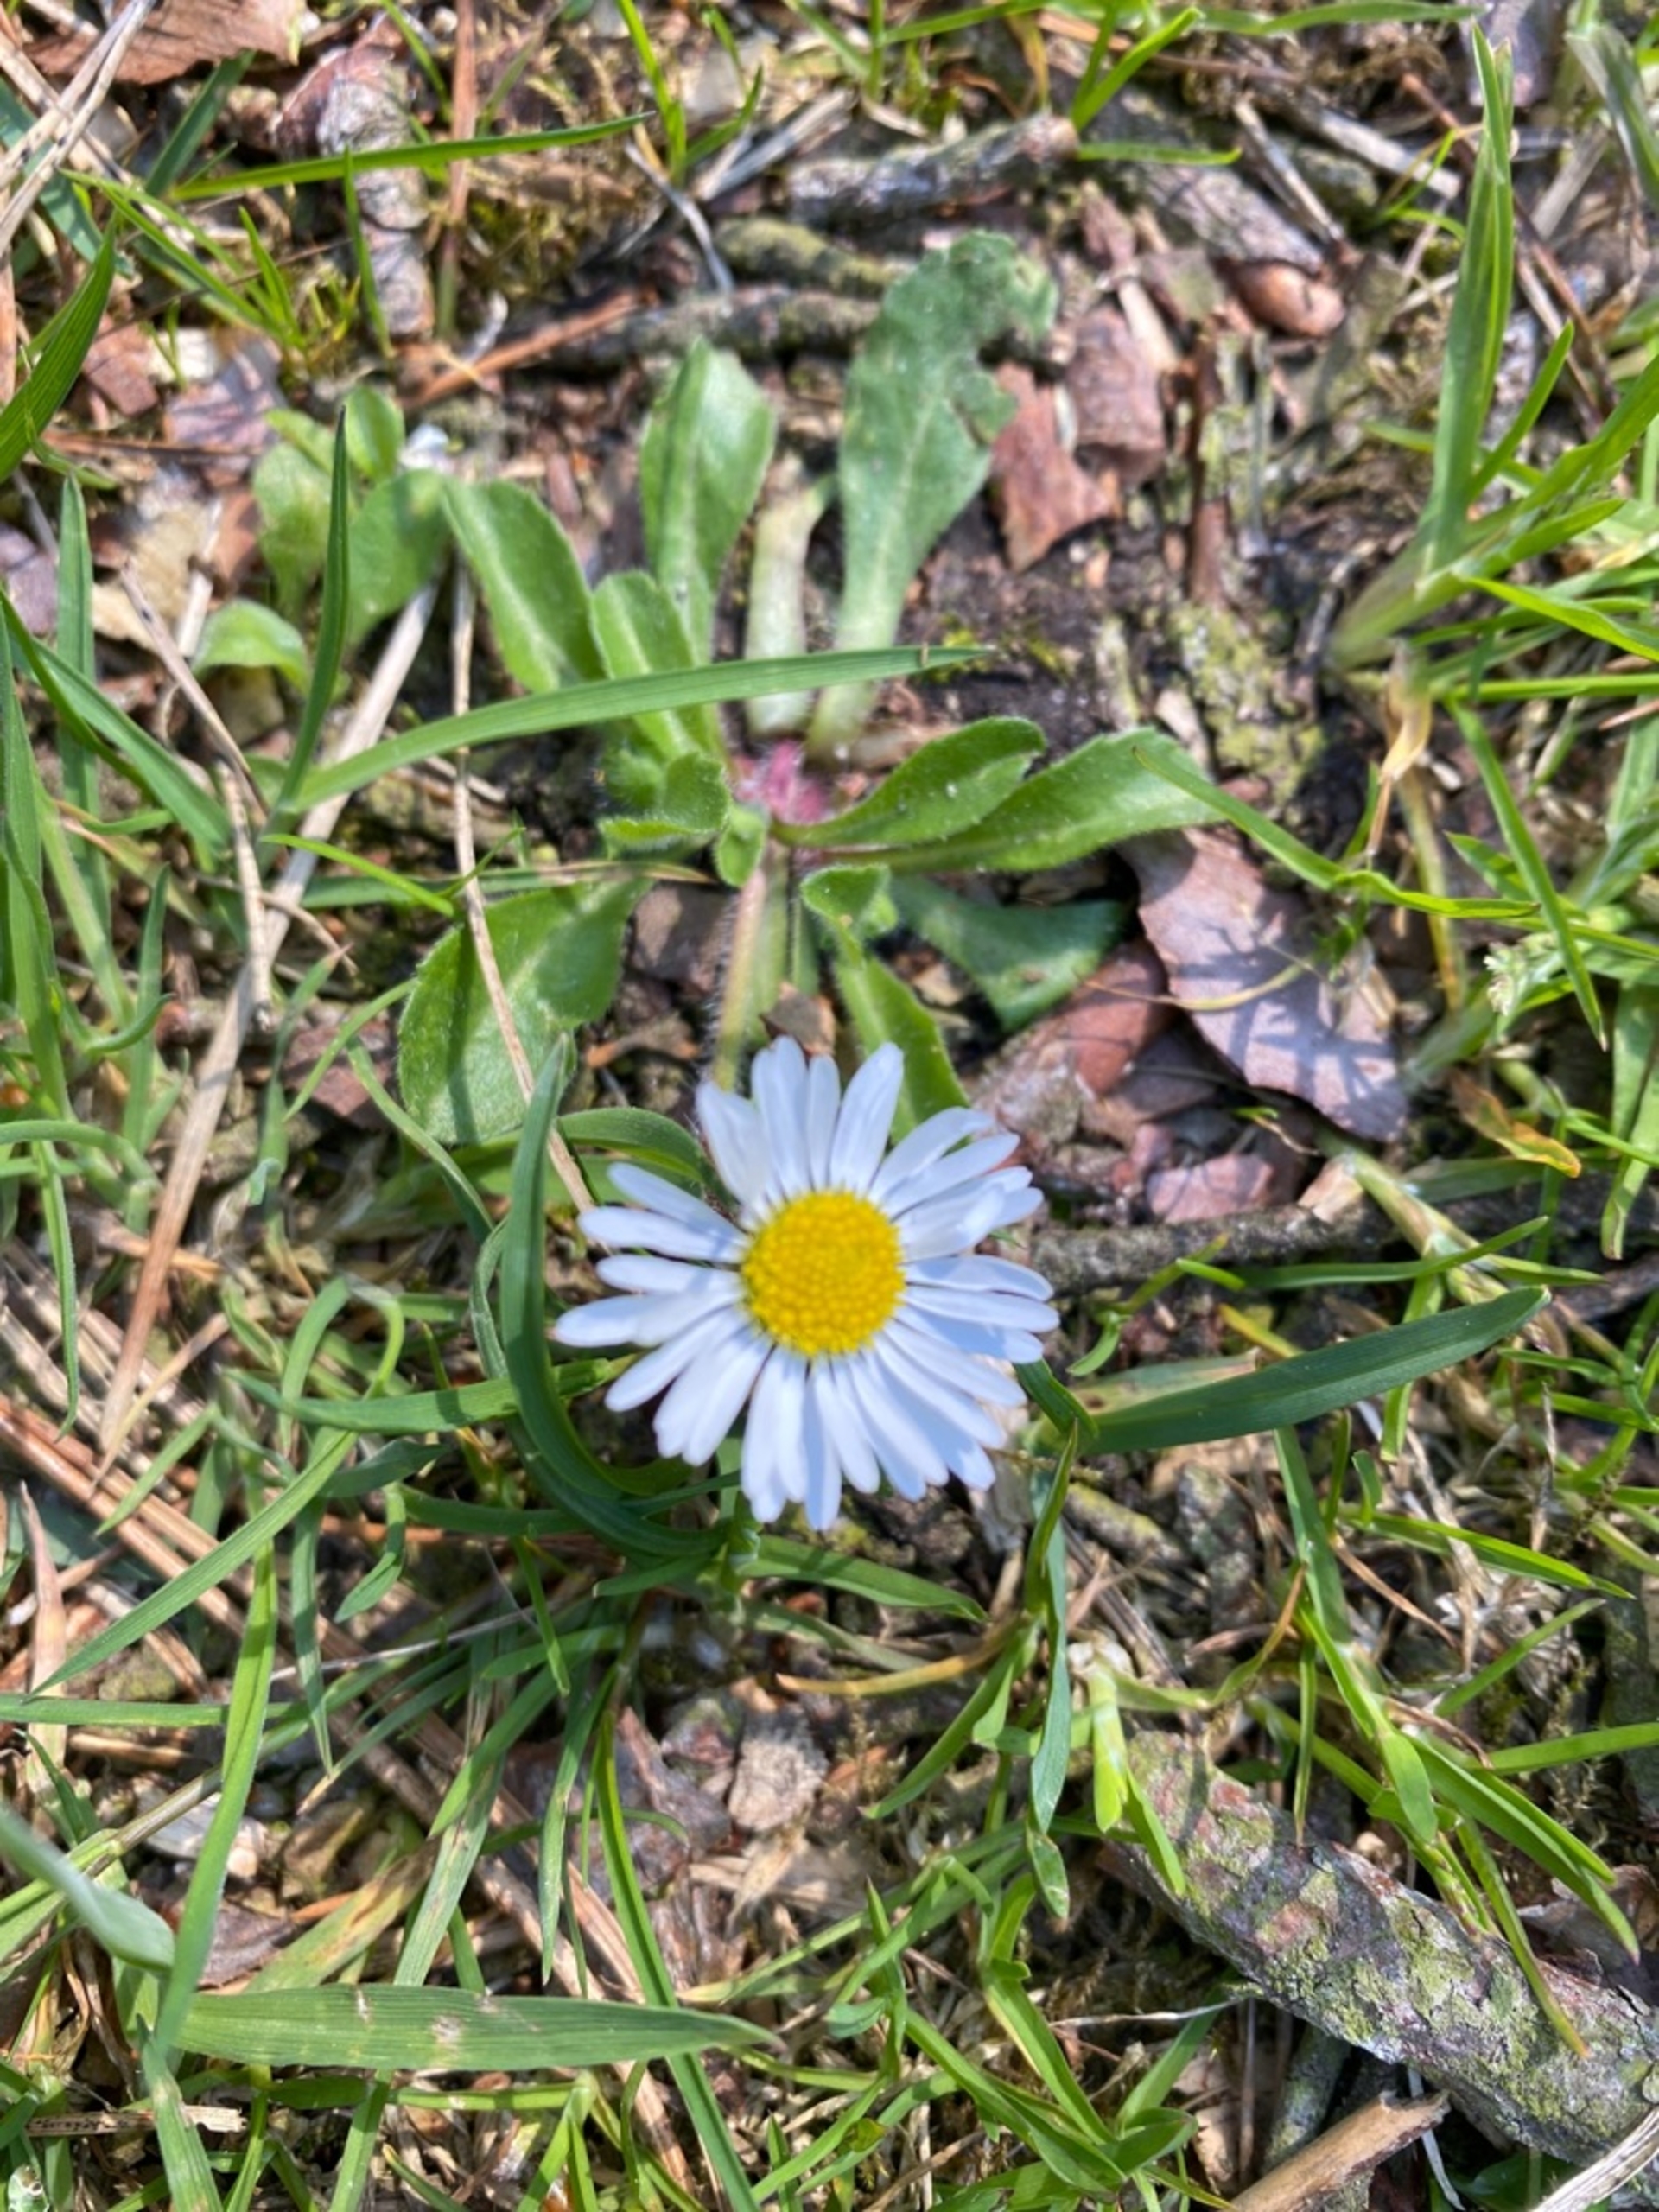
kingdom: Plantae
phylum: Tracheophyta
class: Magnoliopsida
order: Asterales
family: Asteraceae
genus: Bellis
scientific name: Bellis perennis
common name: Tusindfryd
